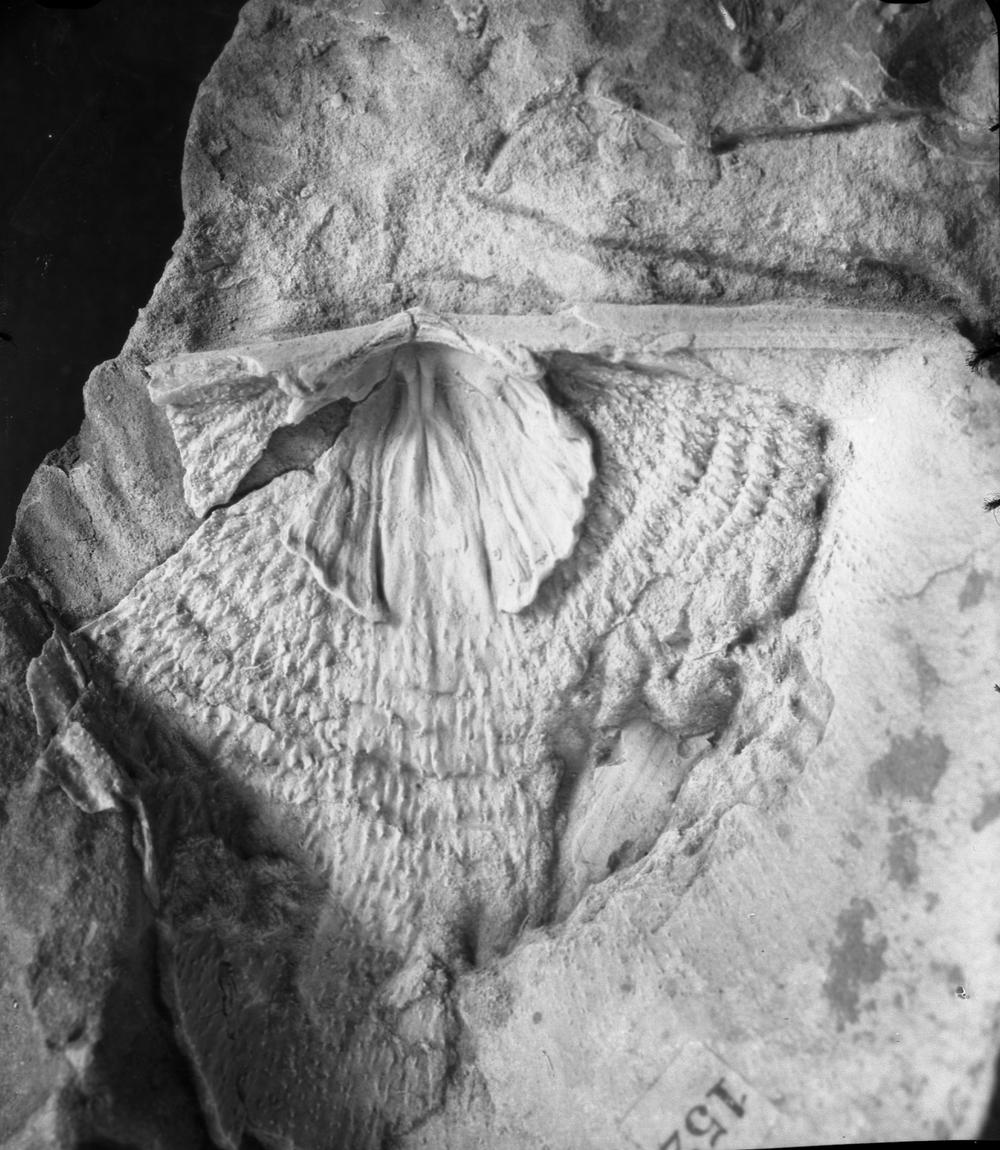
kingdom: Animalia
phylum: Brachiopoda
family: Strophomenidae
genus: Leptaena
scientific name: Leptaena
